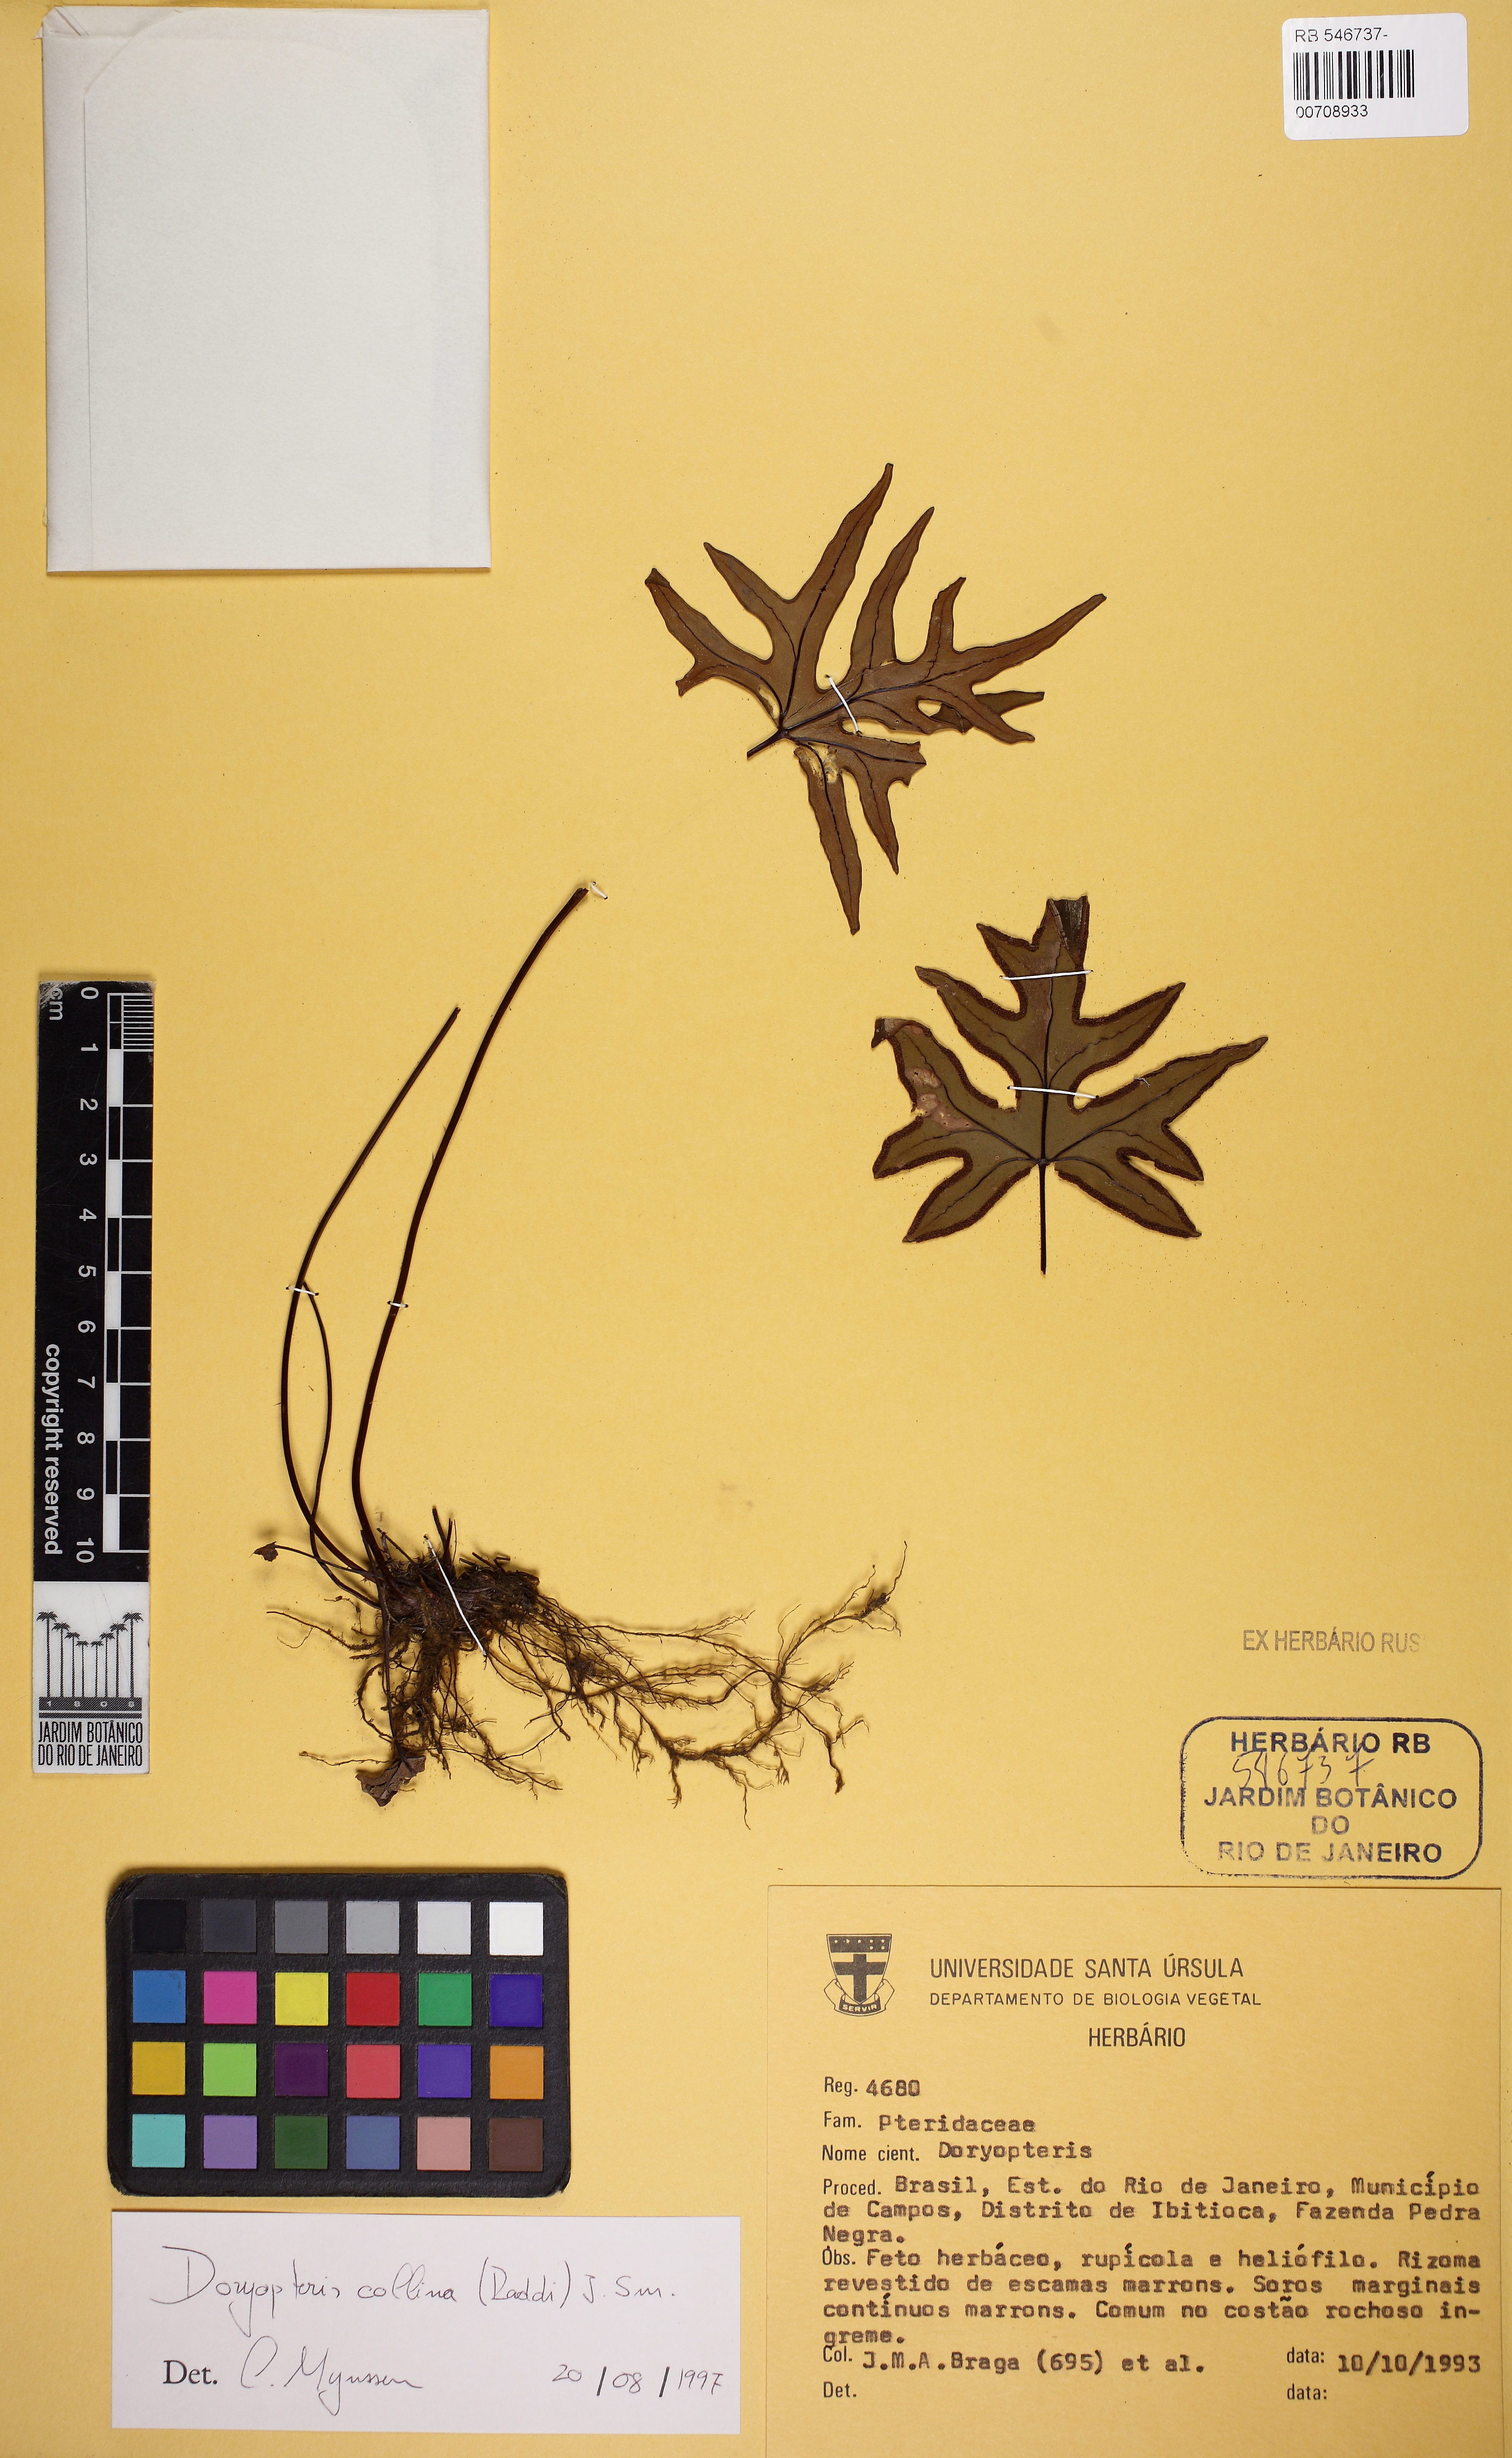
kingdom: Plantae
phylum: Tracheophyta
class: Polypodiopsida
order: Polypodiales
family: Pteridaceae
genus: Doryopteris
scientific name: Doryopteris collina
